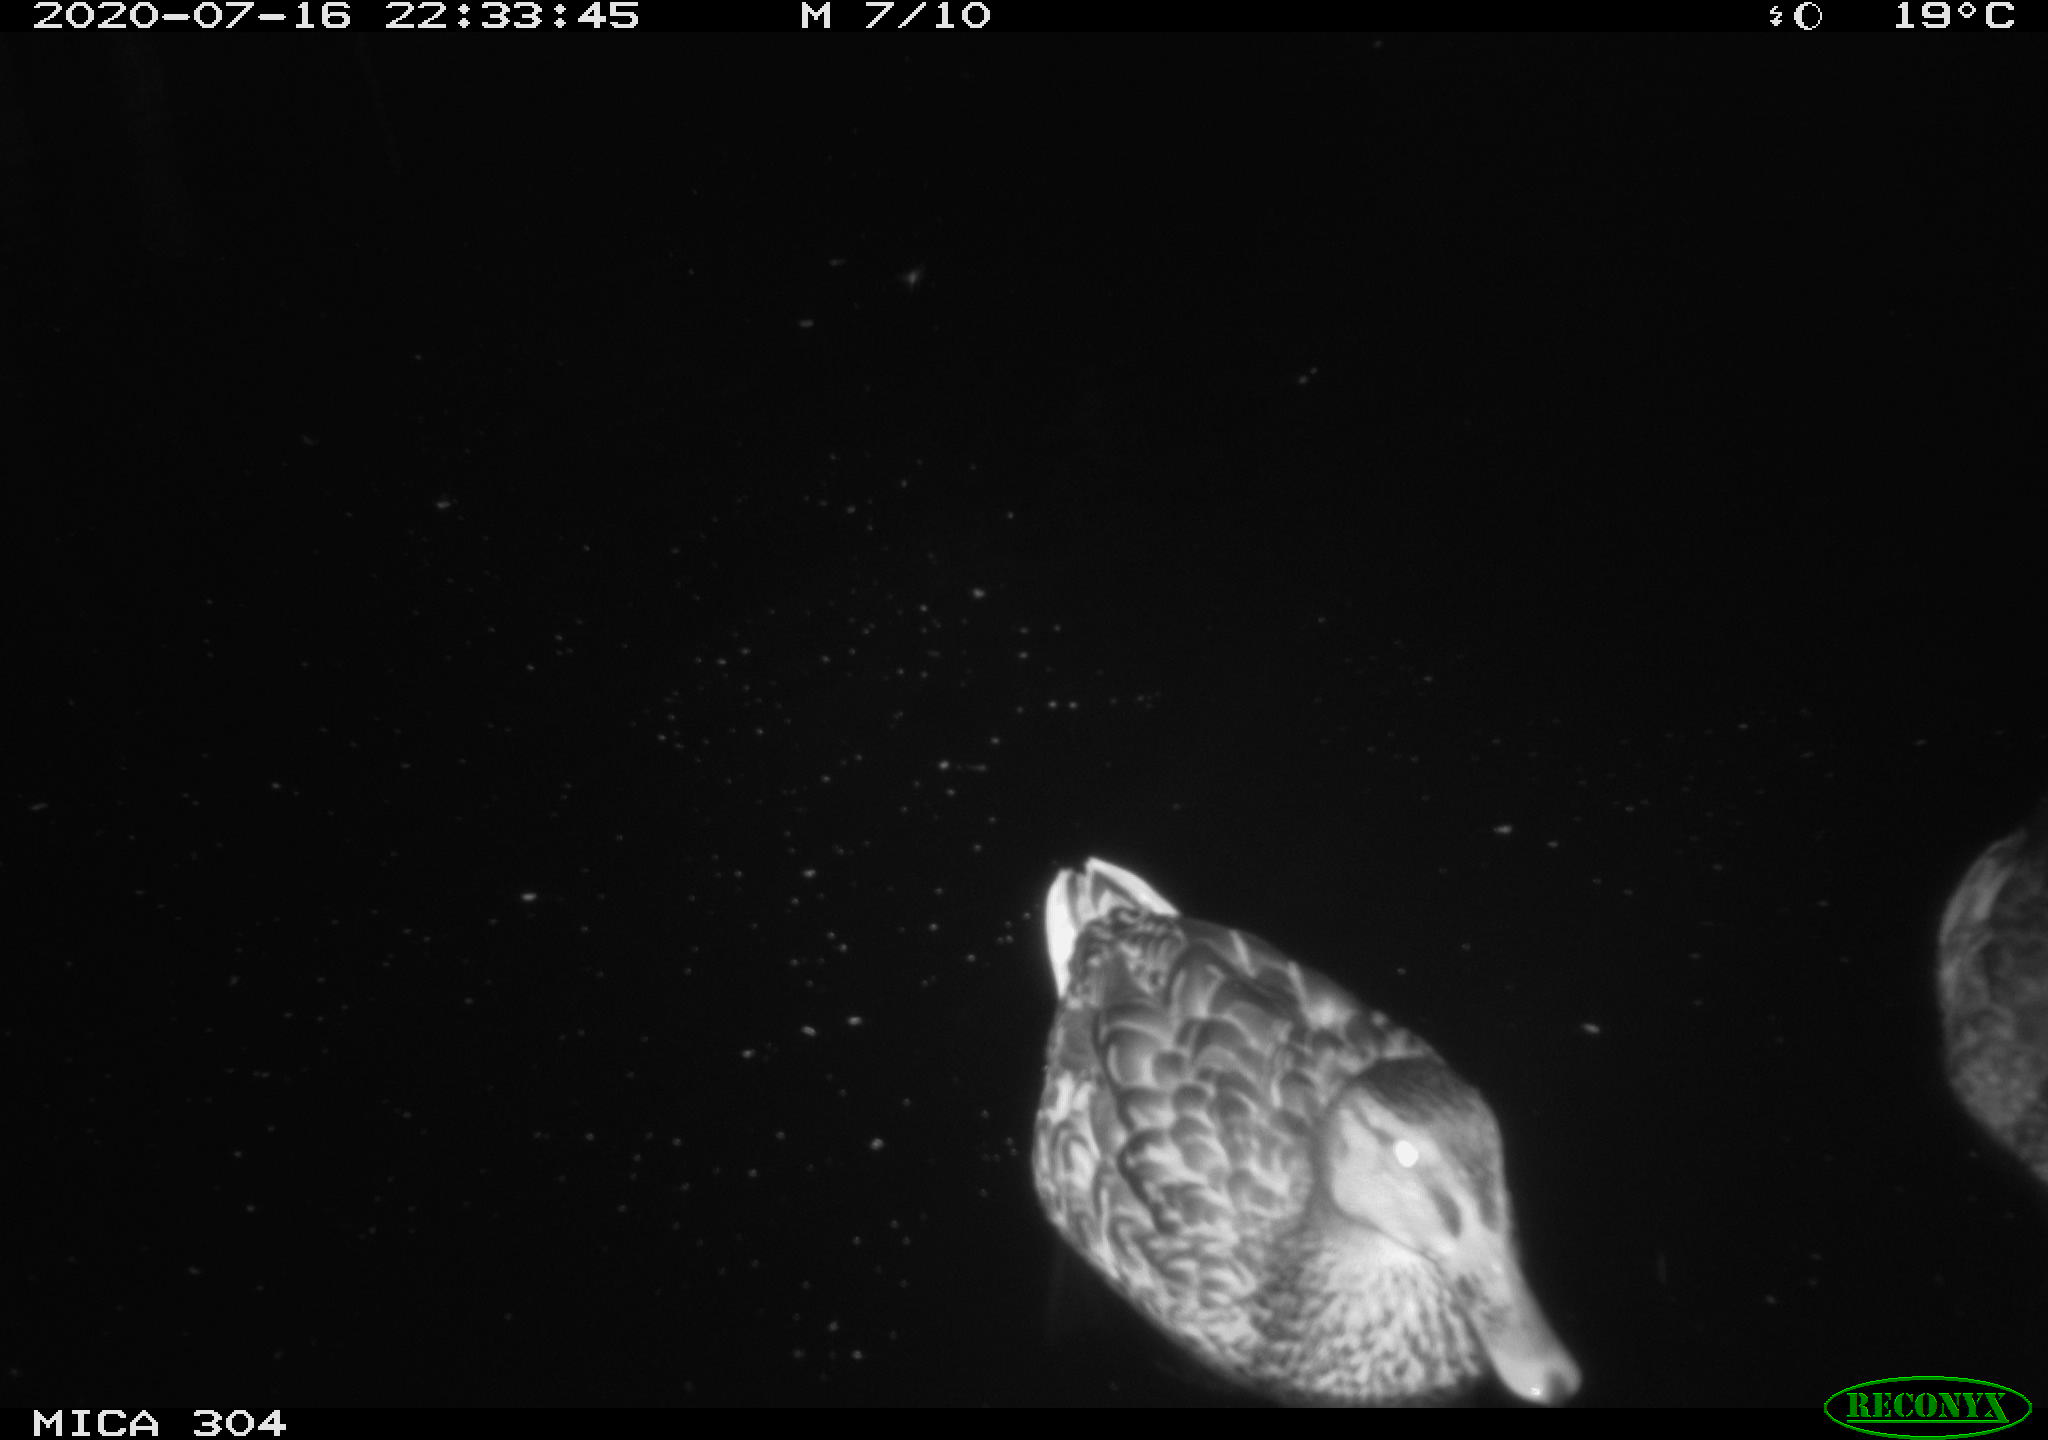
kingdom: Animalia
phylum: Chordata
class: Aves
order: Anseriformes
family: Anatidae
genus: Anas
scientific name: Anas platyrhynchos
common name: Mallard
